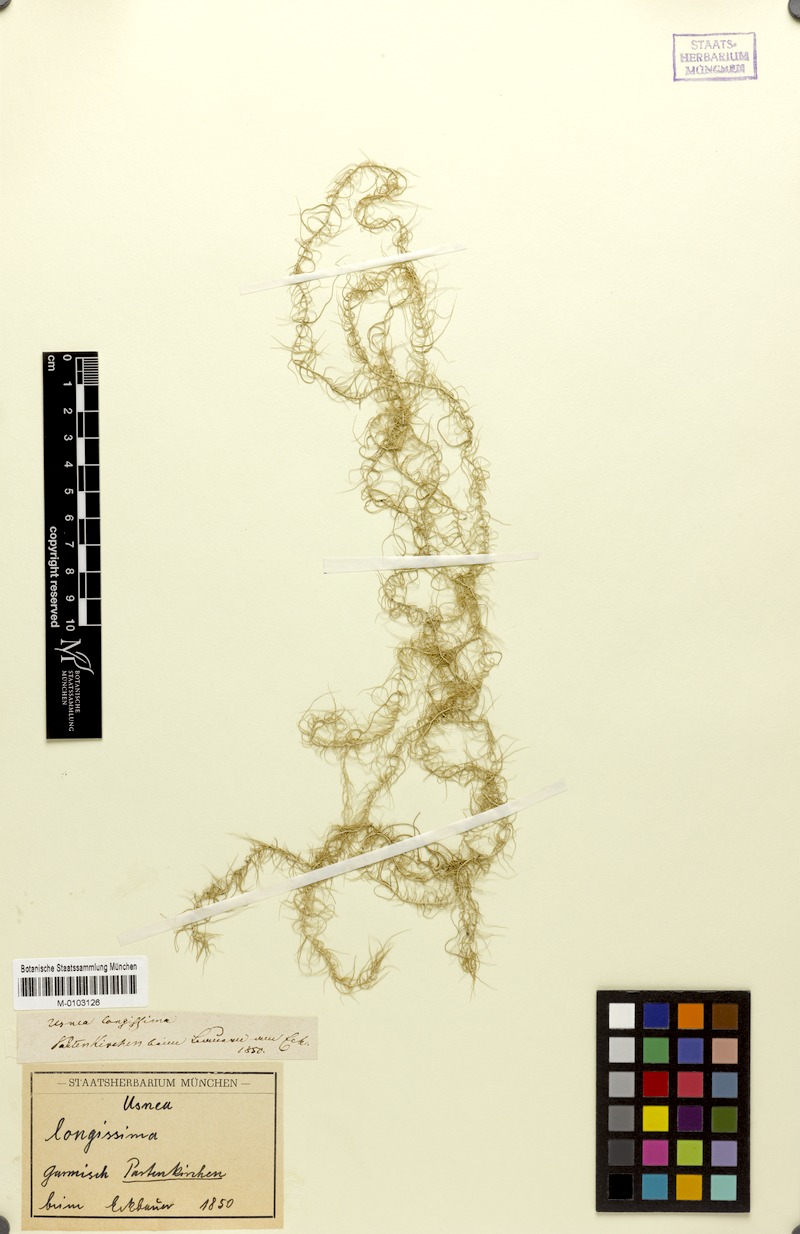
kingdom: Fungi
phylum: Ascomycota
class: Lecanoromycetes
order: Lecanorales
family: Parmeliaceae
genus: Dolichousnea
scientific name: Dolichousnea longissima
